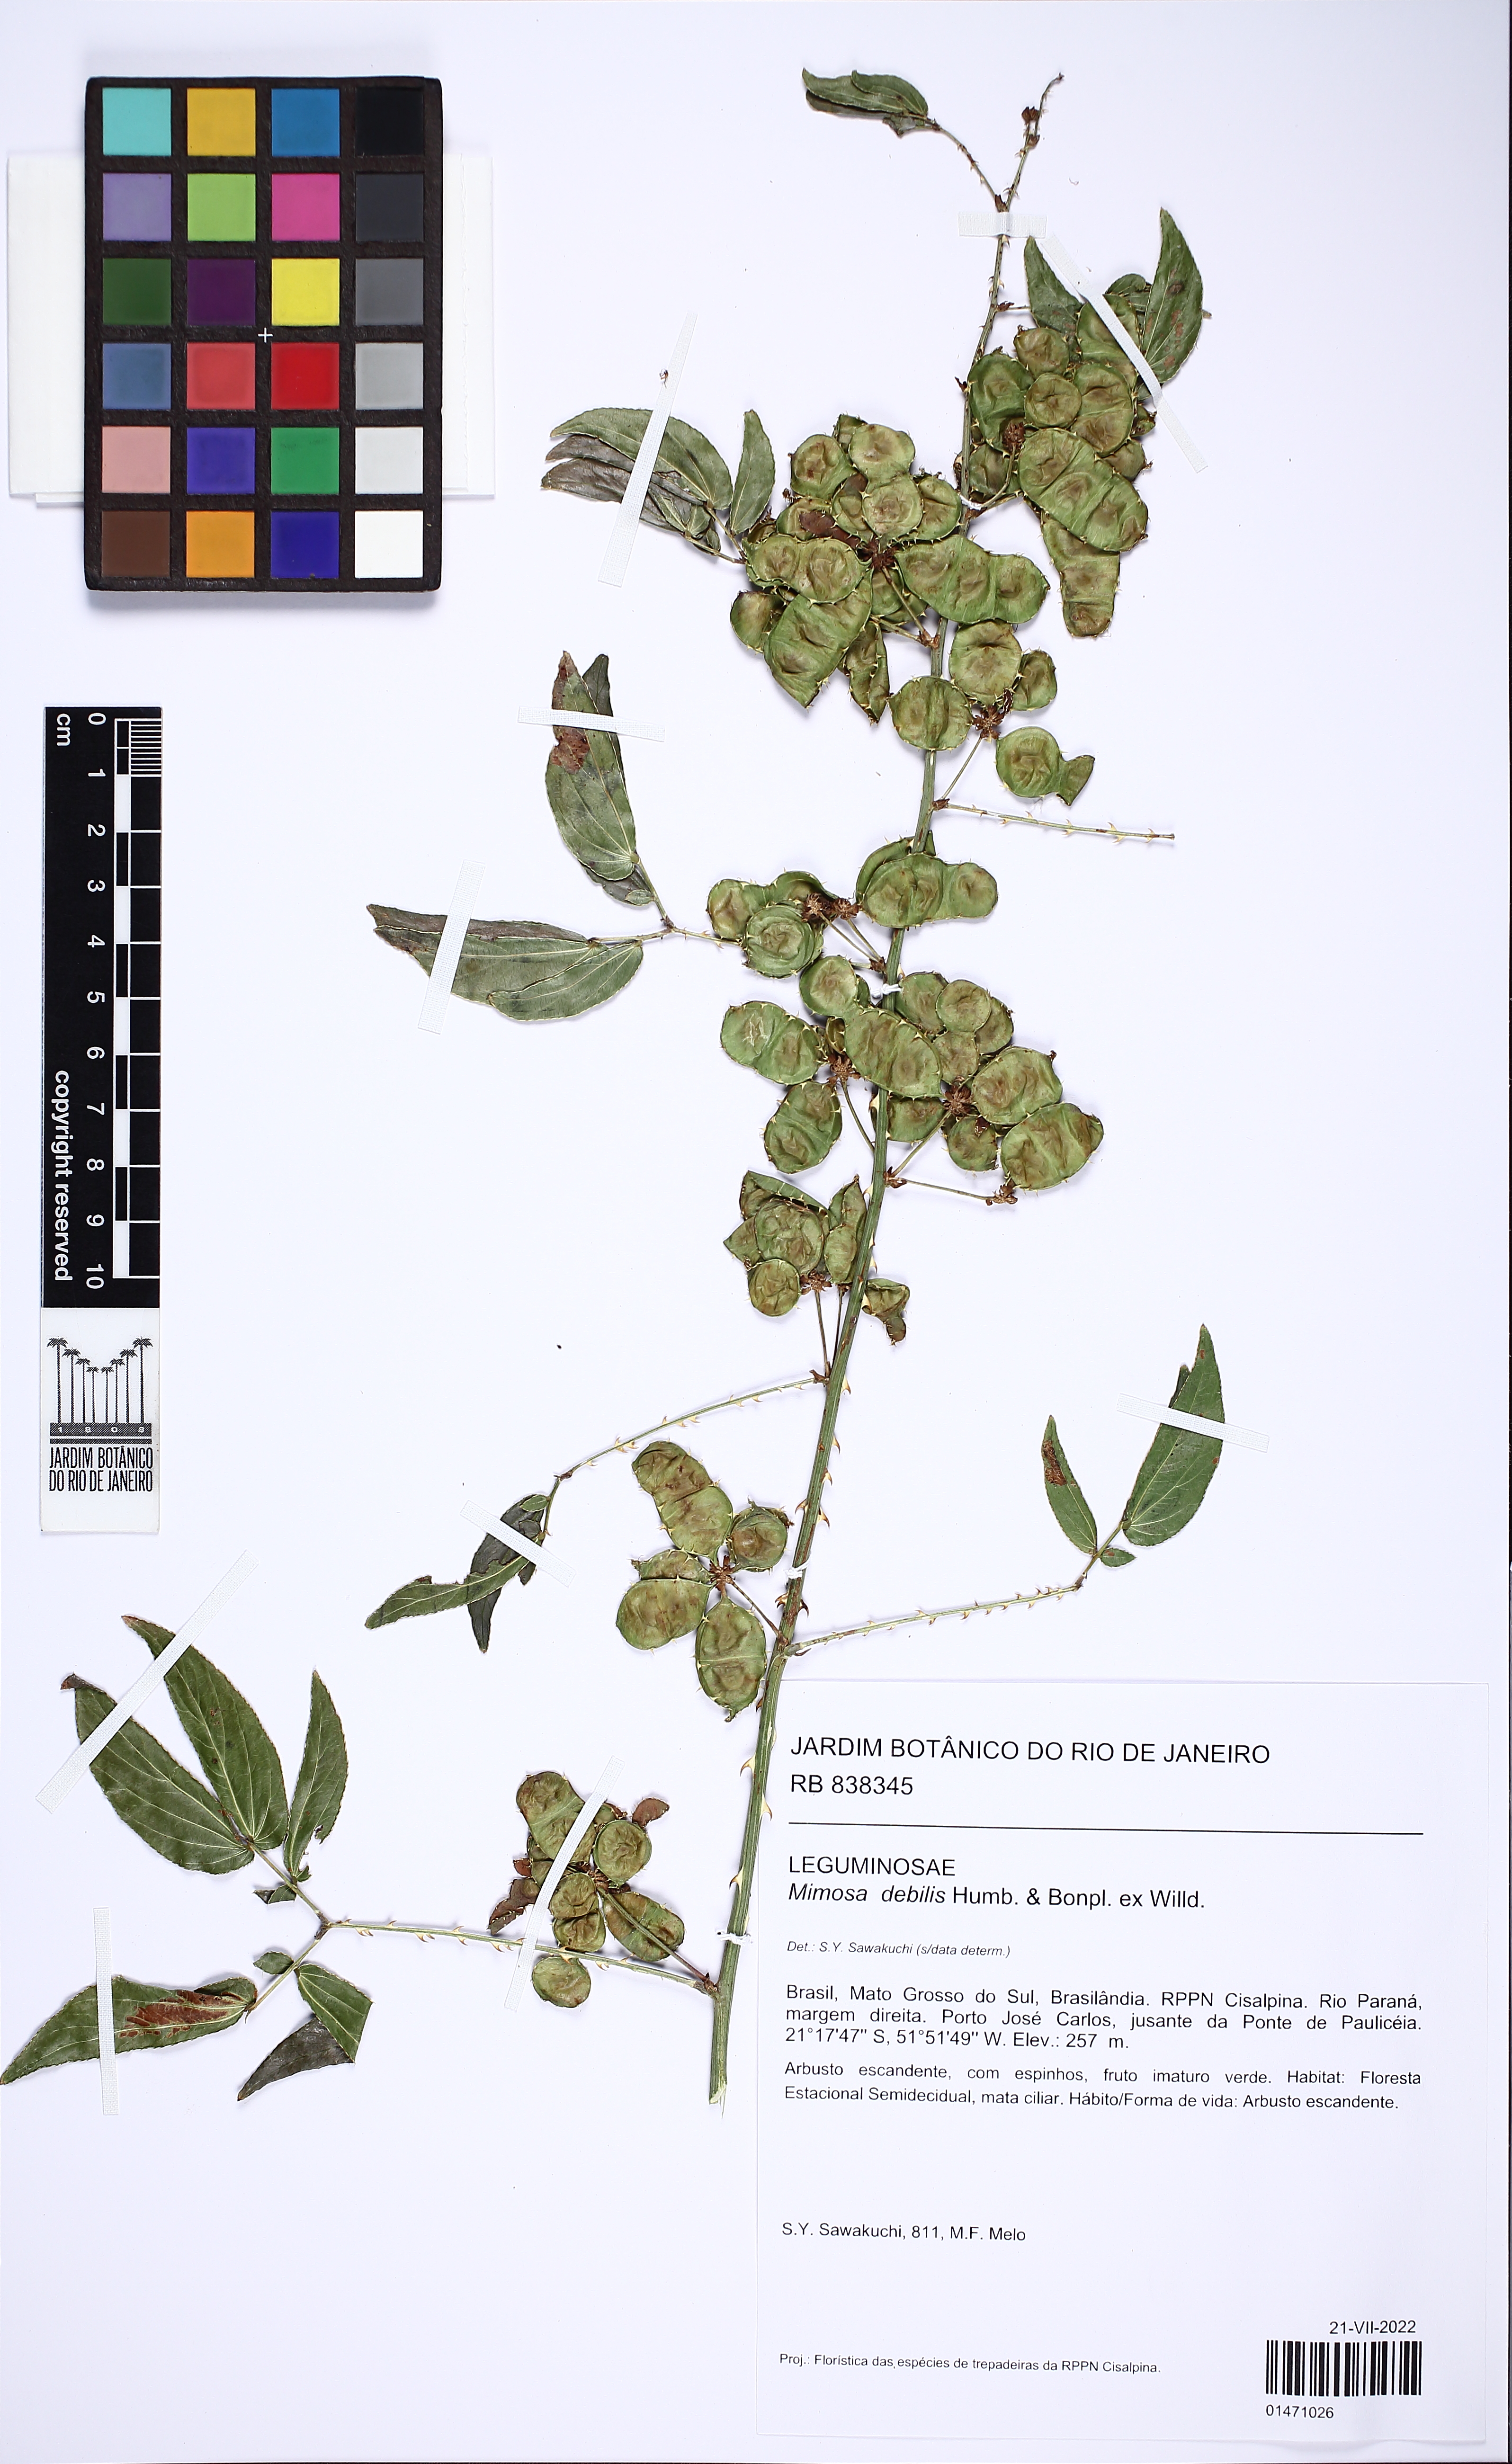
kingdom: Plantae
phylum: Tracheophyta
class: Magnoliopsida
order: Fabales
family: Fabaceae
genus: Mimosa
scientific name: Mimosa debilis
